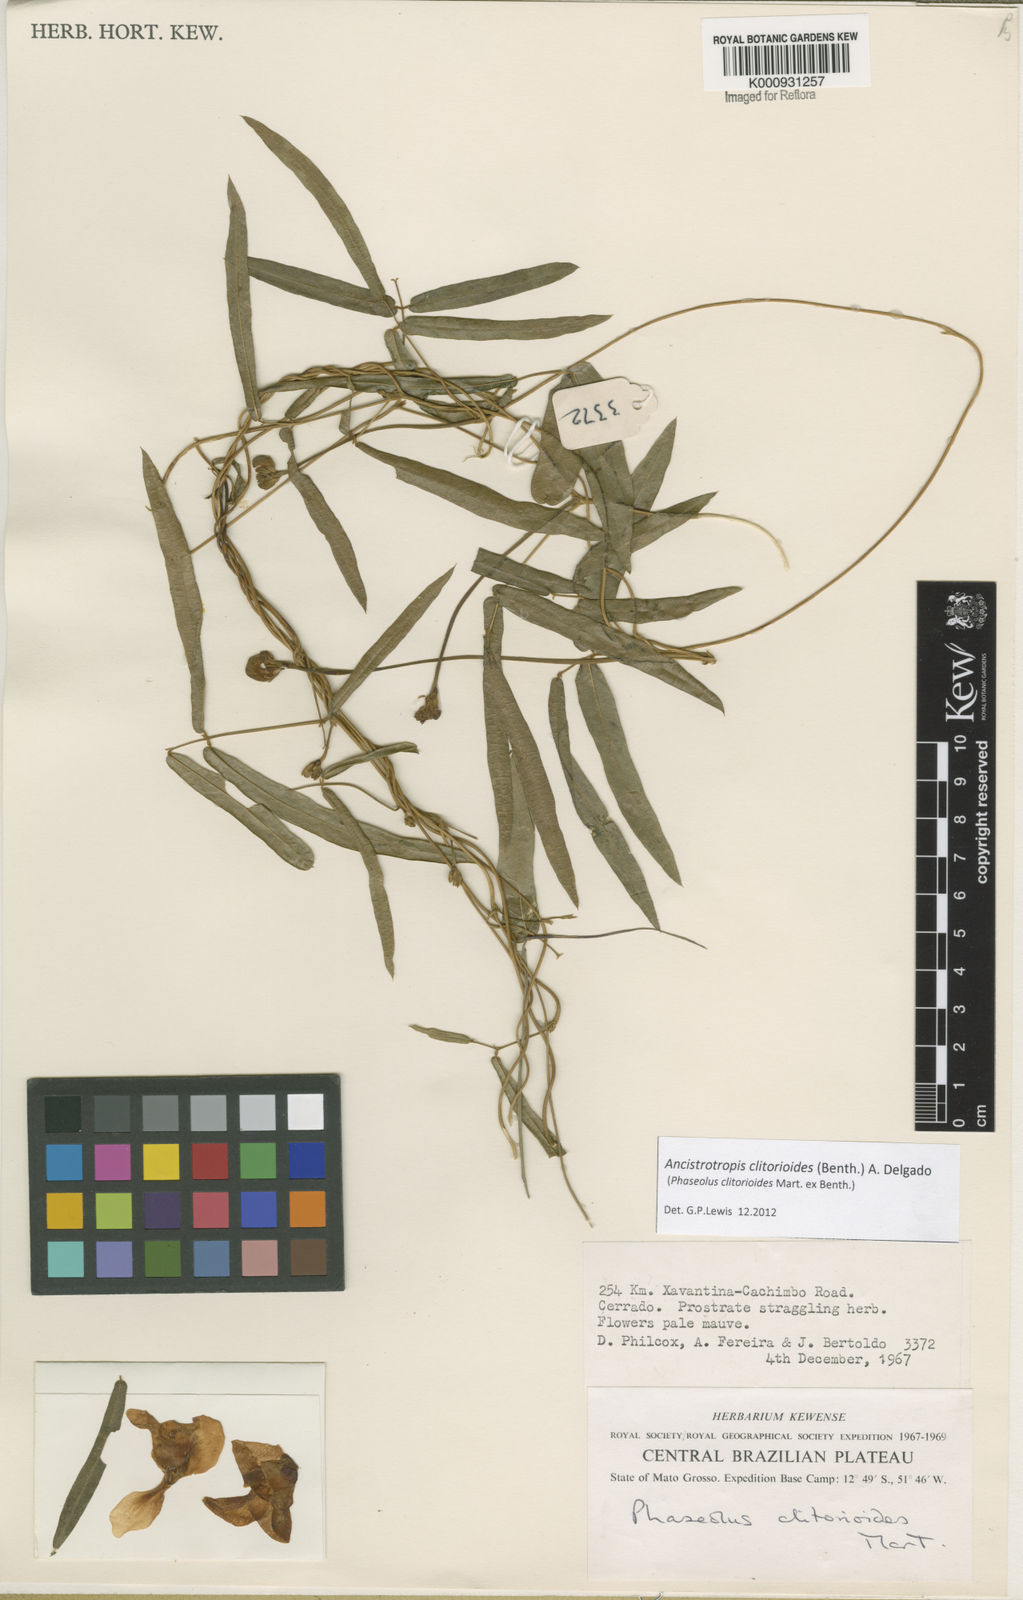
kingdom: Plantae
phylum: Tracheophyta
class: Magnoliopsida
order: Fabales
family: Fabaceae
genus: Ancistrotropis
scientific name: Ancistrotropis clitorioides
